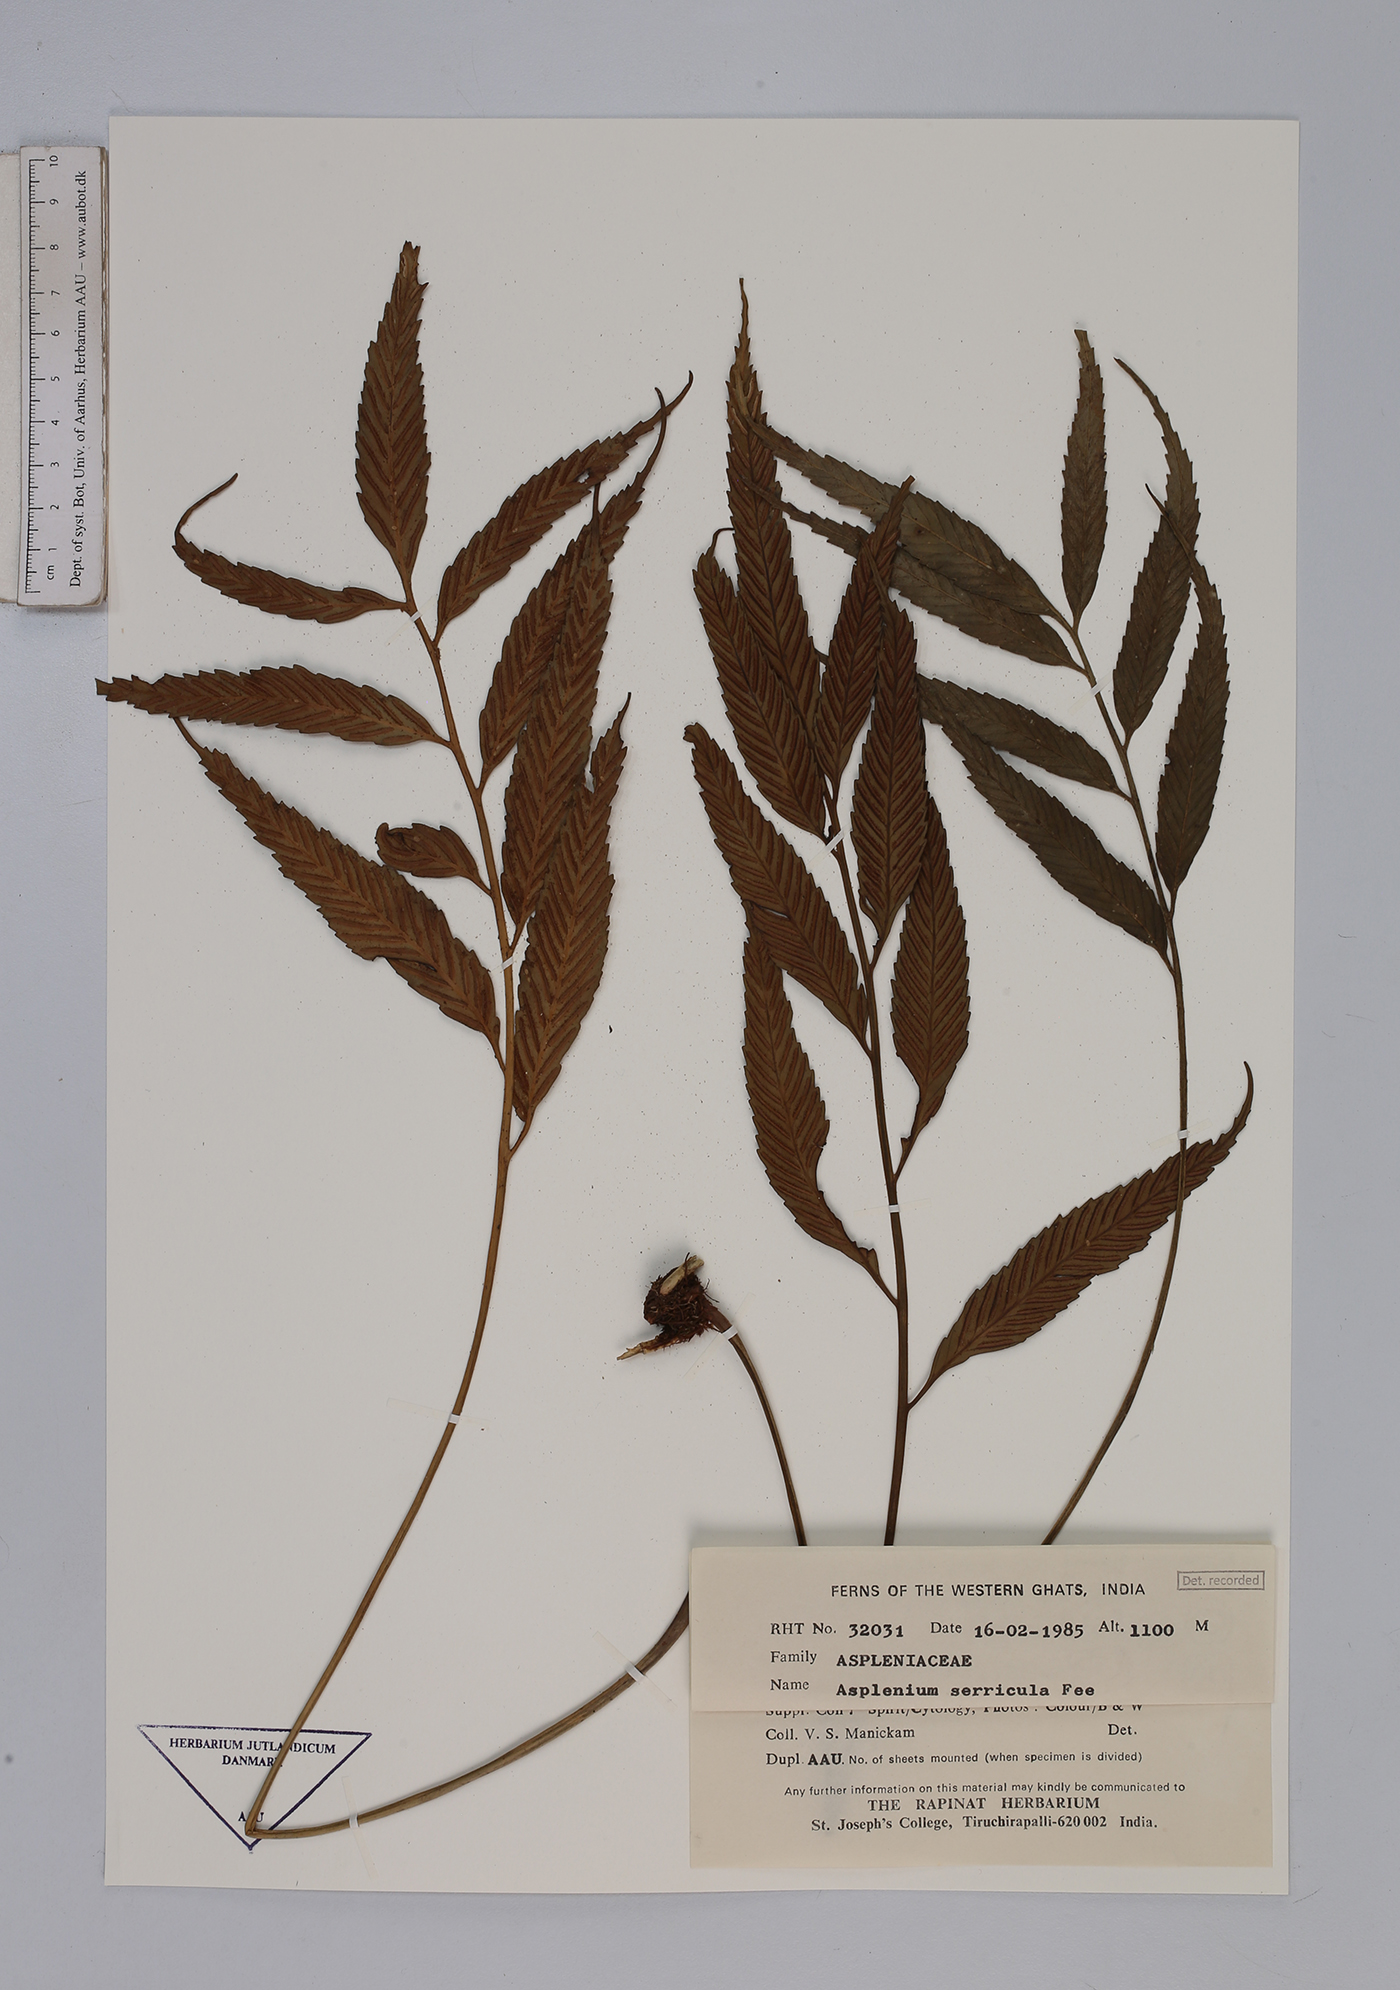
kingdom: Plantae
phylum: Tracheophyta
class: Polypodiopsida
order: Polypodiales
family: Aspleniaceae
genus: Asplenium
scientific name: Asplenium serricula
